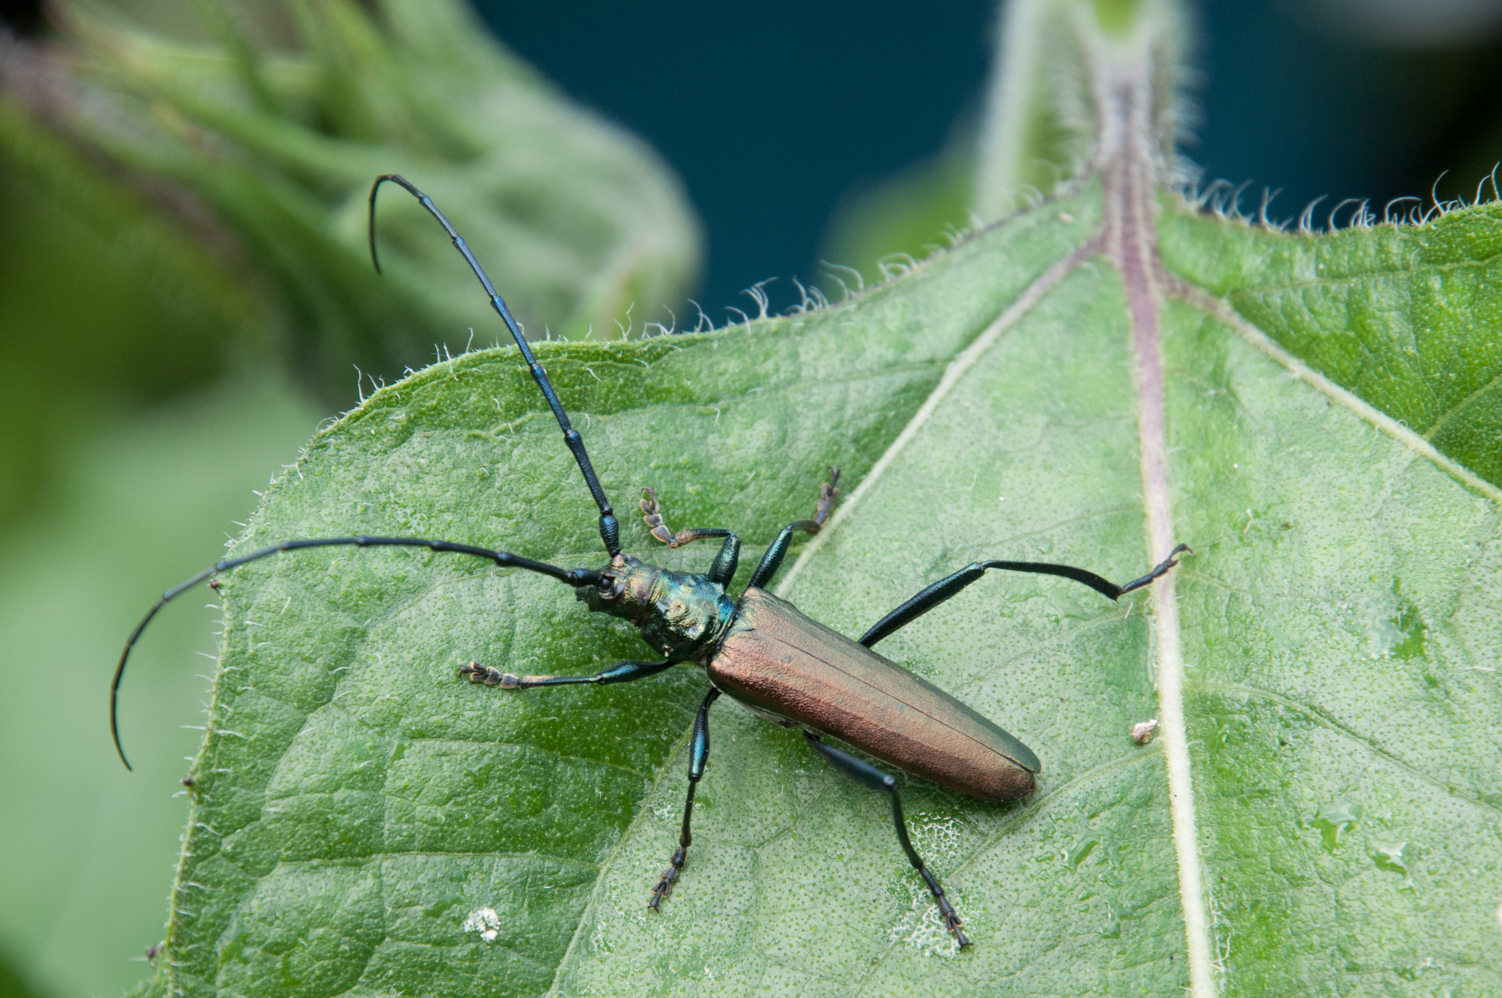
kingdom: Animalia
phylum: Arthropoda
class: Insecta
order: Coleoptera
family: Cerambycidae
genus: Aromia
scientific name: Aromia moschata
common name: Musk beetle
